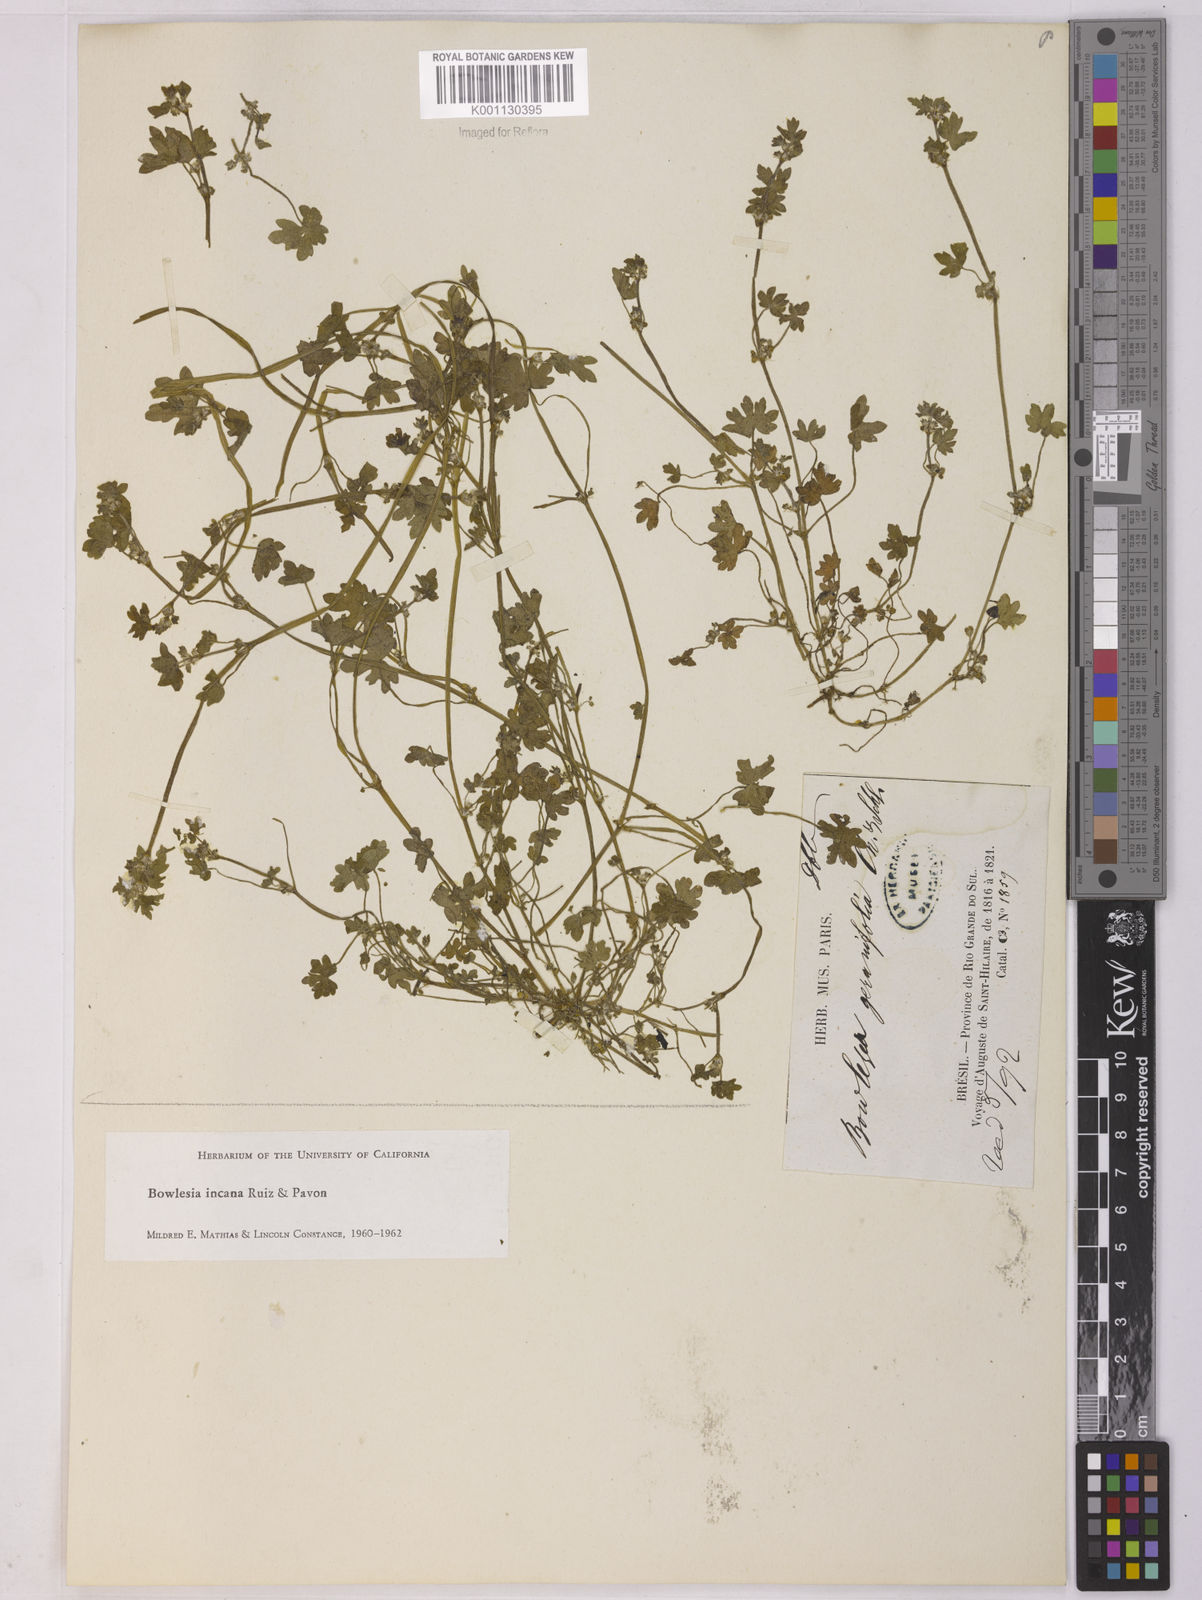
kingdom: Plantae
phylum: Tracheophyta
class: Magnoliopsida
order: Apiales
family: Apiaceae
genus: Bowlesia
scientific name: Bowlesia incana
